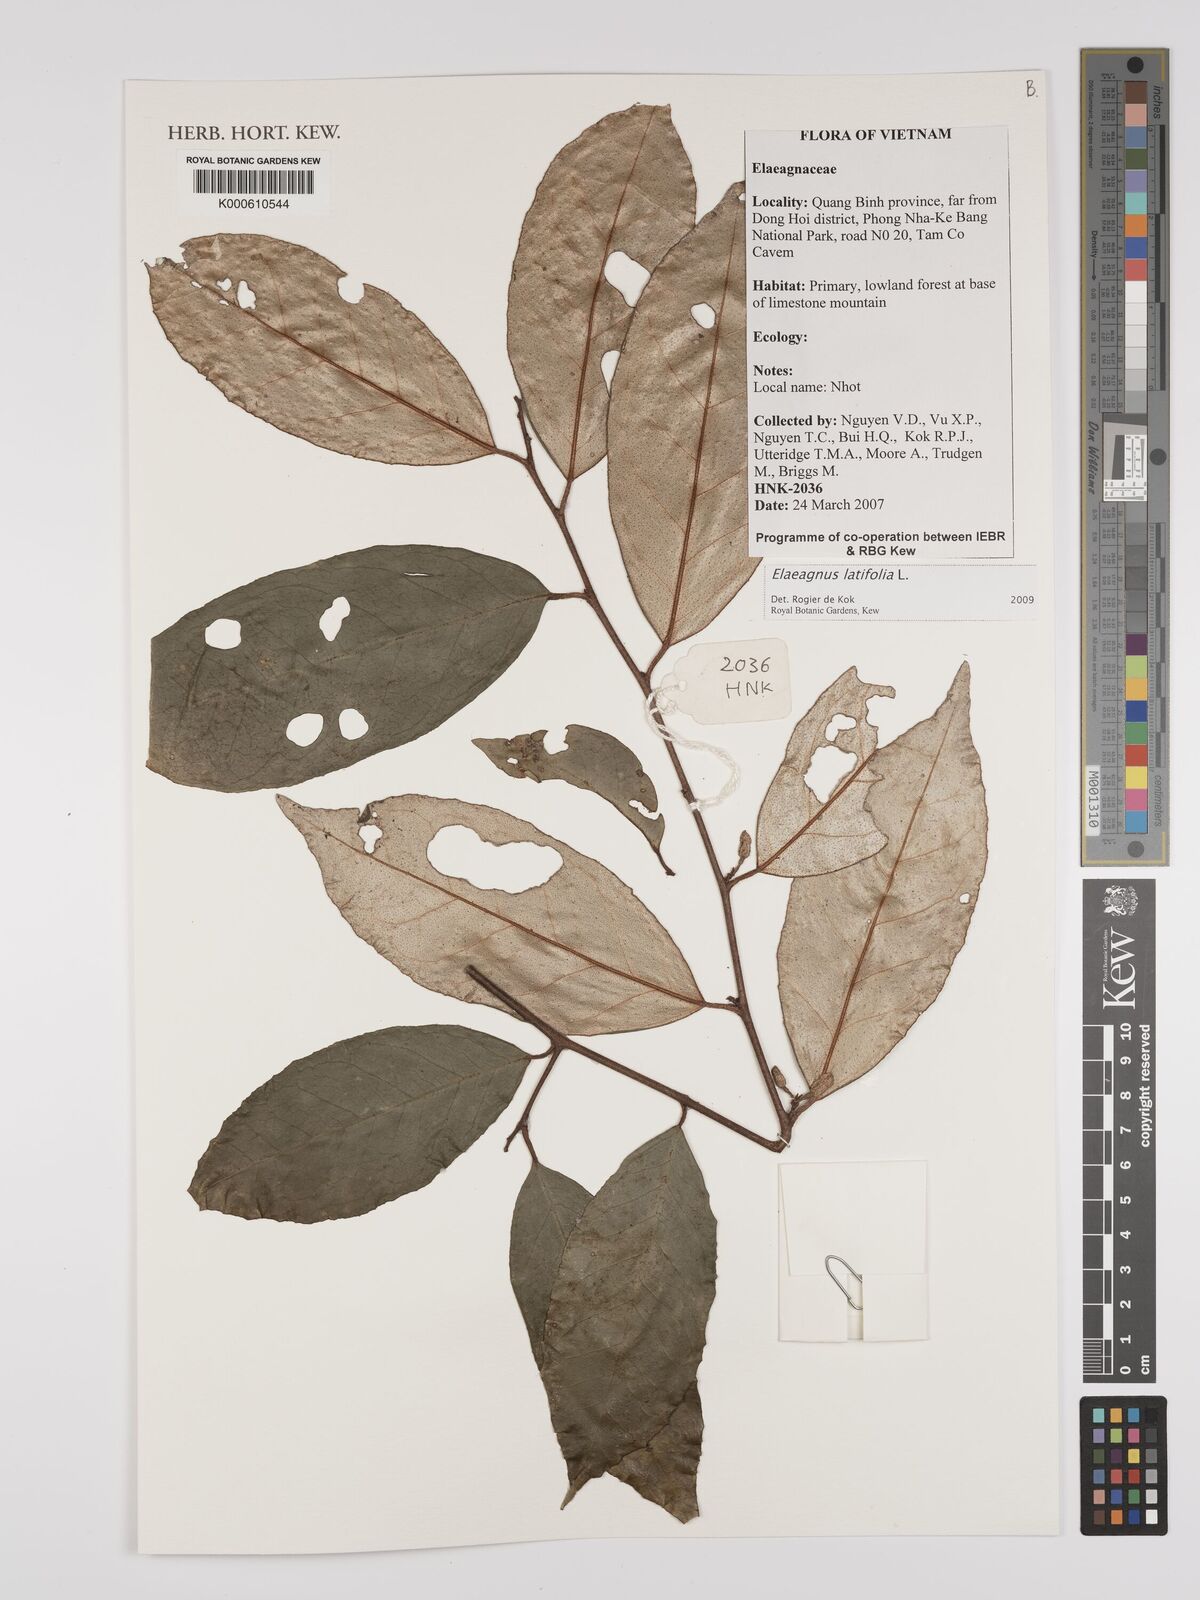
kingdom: Plantae
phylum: Tracheophyta
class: Magnoliopsida
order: Rosales
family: Elaeagnaceae
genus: Elaeagnus
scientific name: Elaeagnus latifolia
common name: Oleaster
